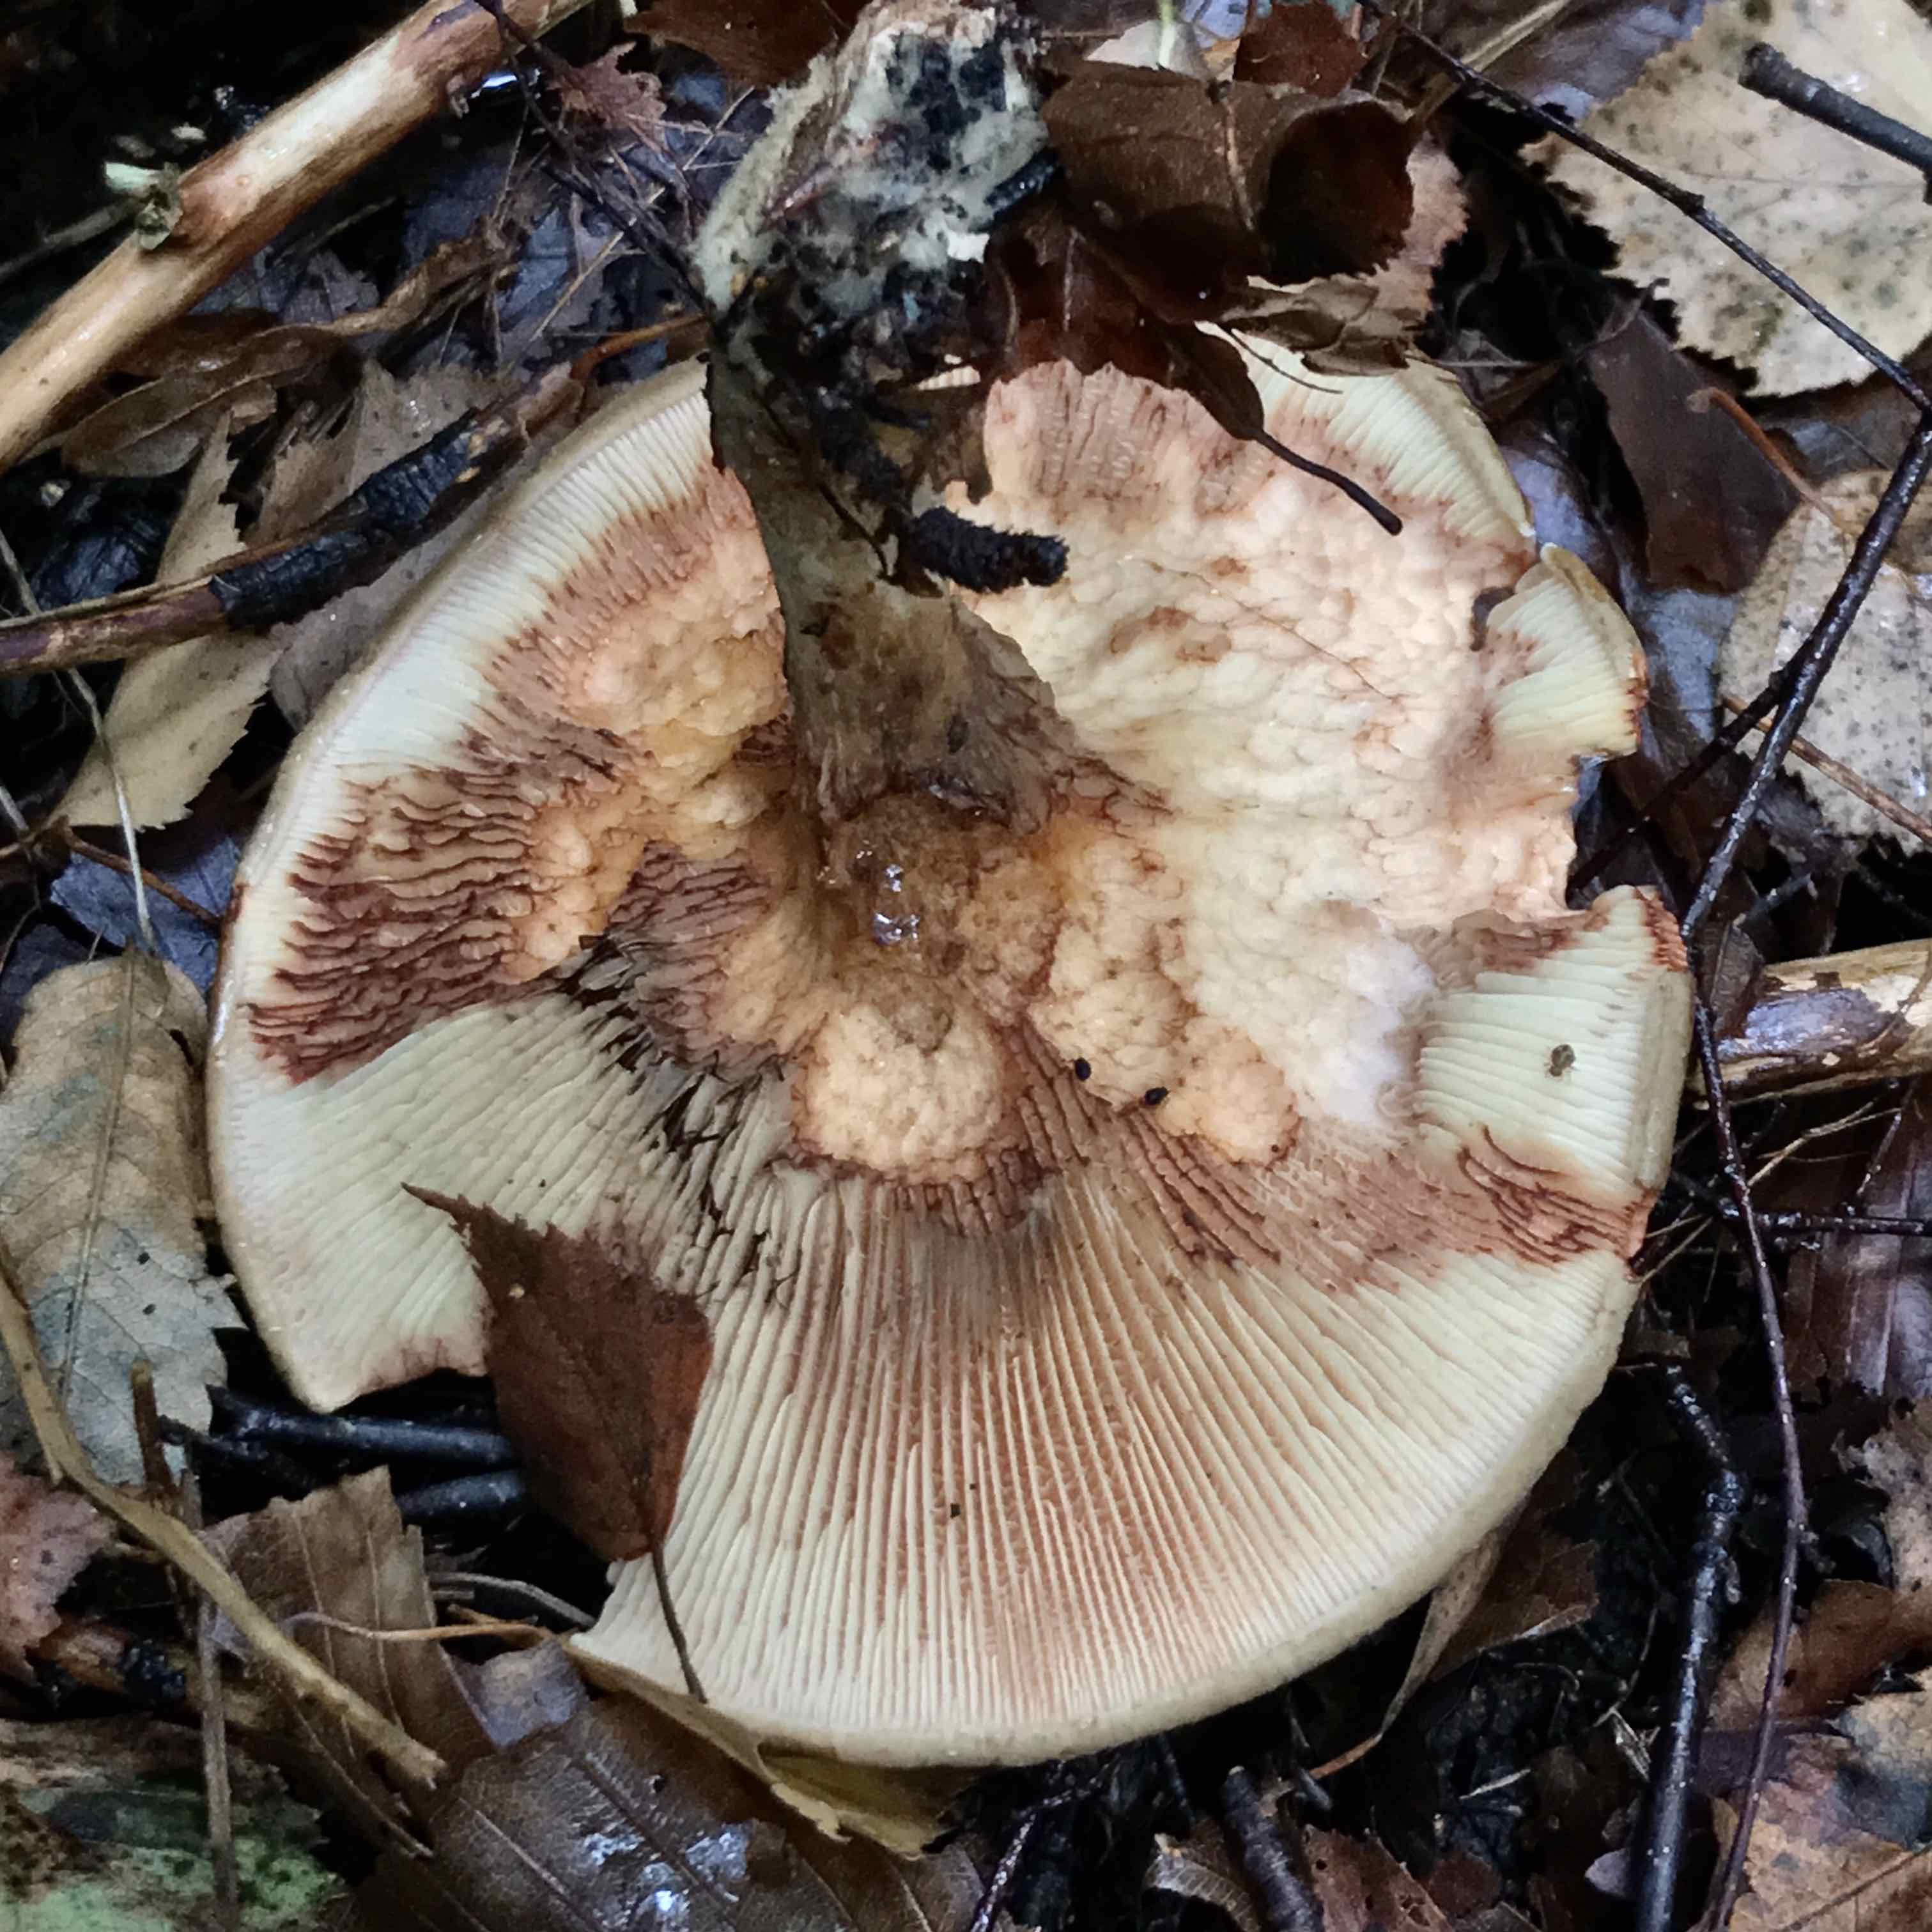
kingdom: Fungi
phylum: Basidiomycota
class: Agaricomycetes
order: Boletales
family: Paxillaceae
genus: Paxillus
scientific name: Paxillus involutus
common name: almindelig netbladhat
